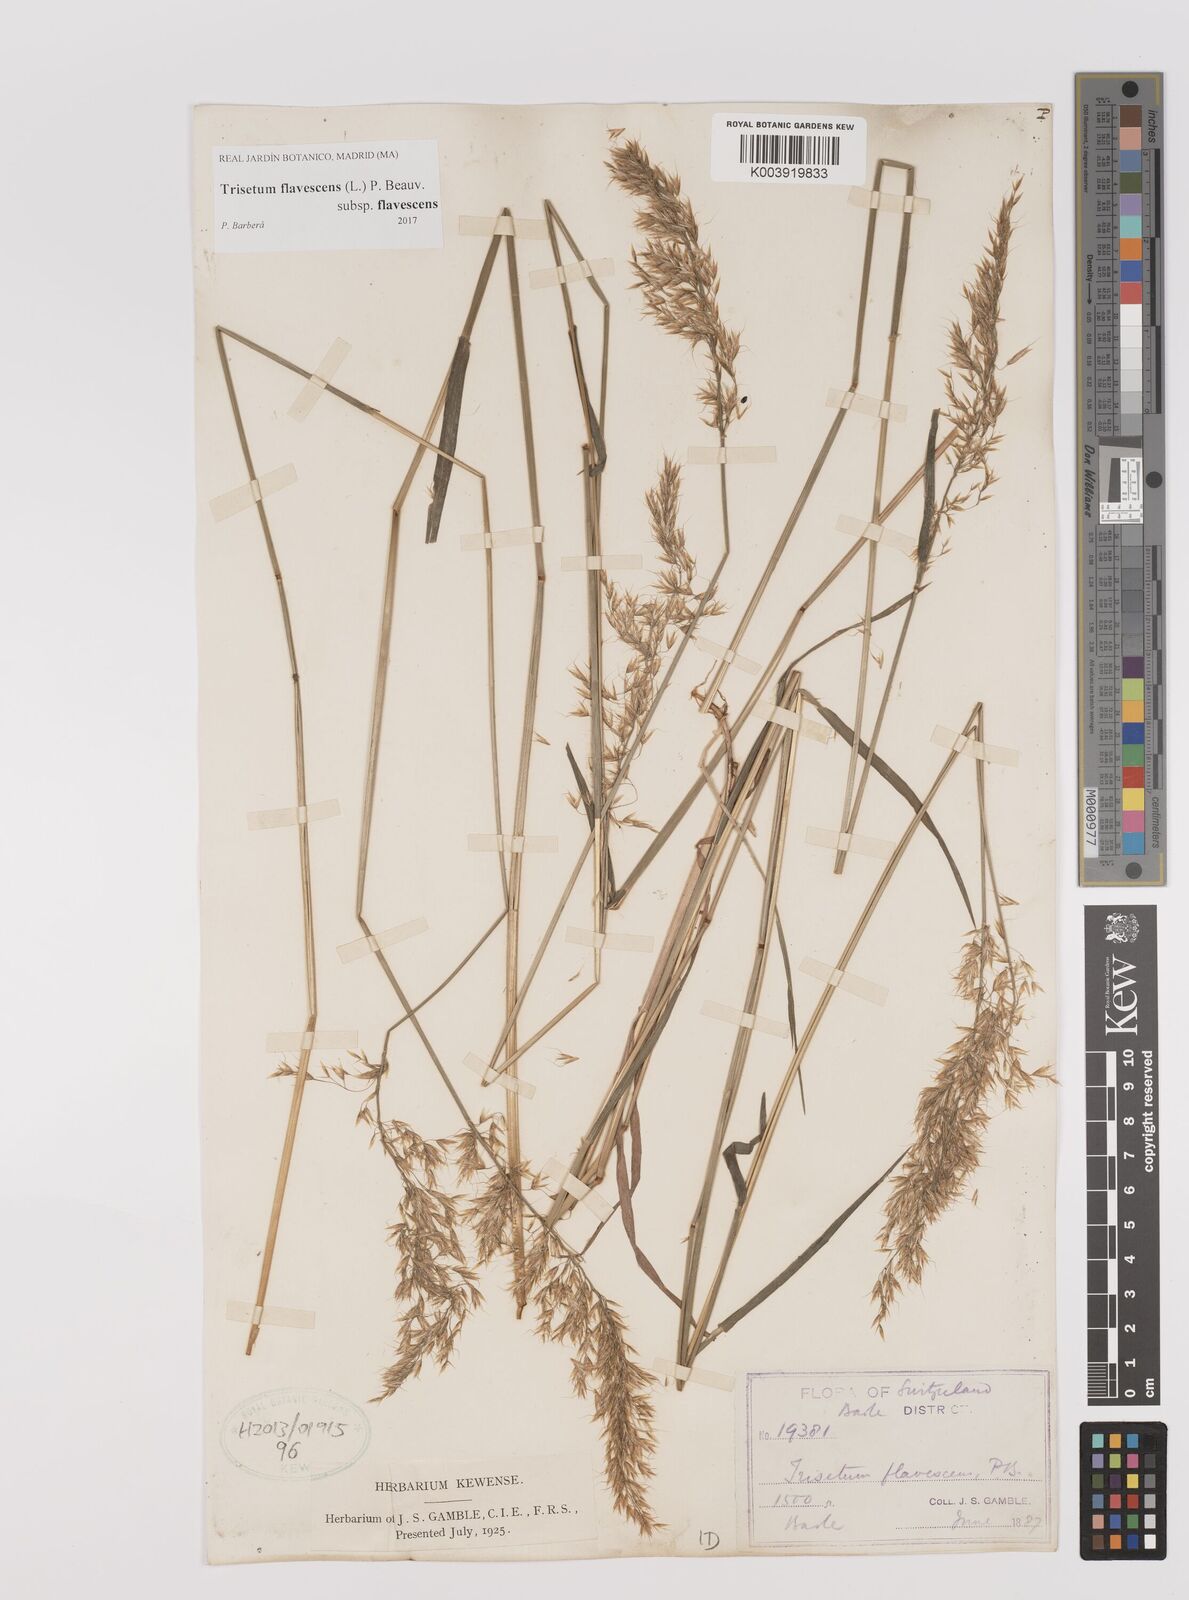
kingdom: Plantae
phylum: Tracheophyta
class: Liliopsida
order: Poales
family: Poaceae
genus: Trisetum
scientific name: Trisetum flavescens
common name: Yellow oat-grass
